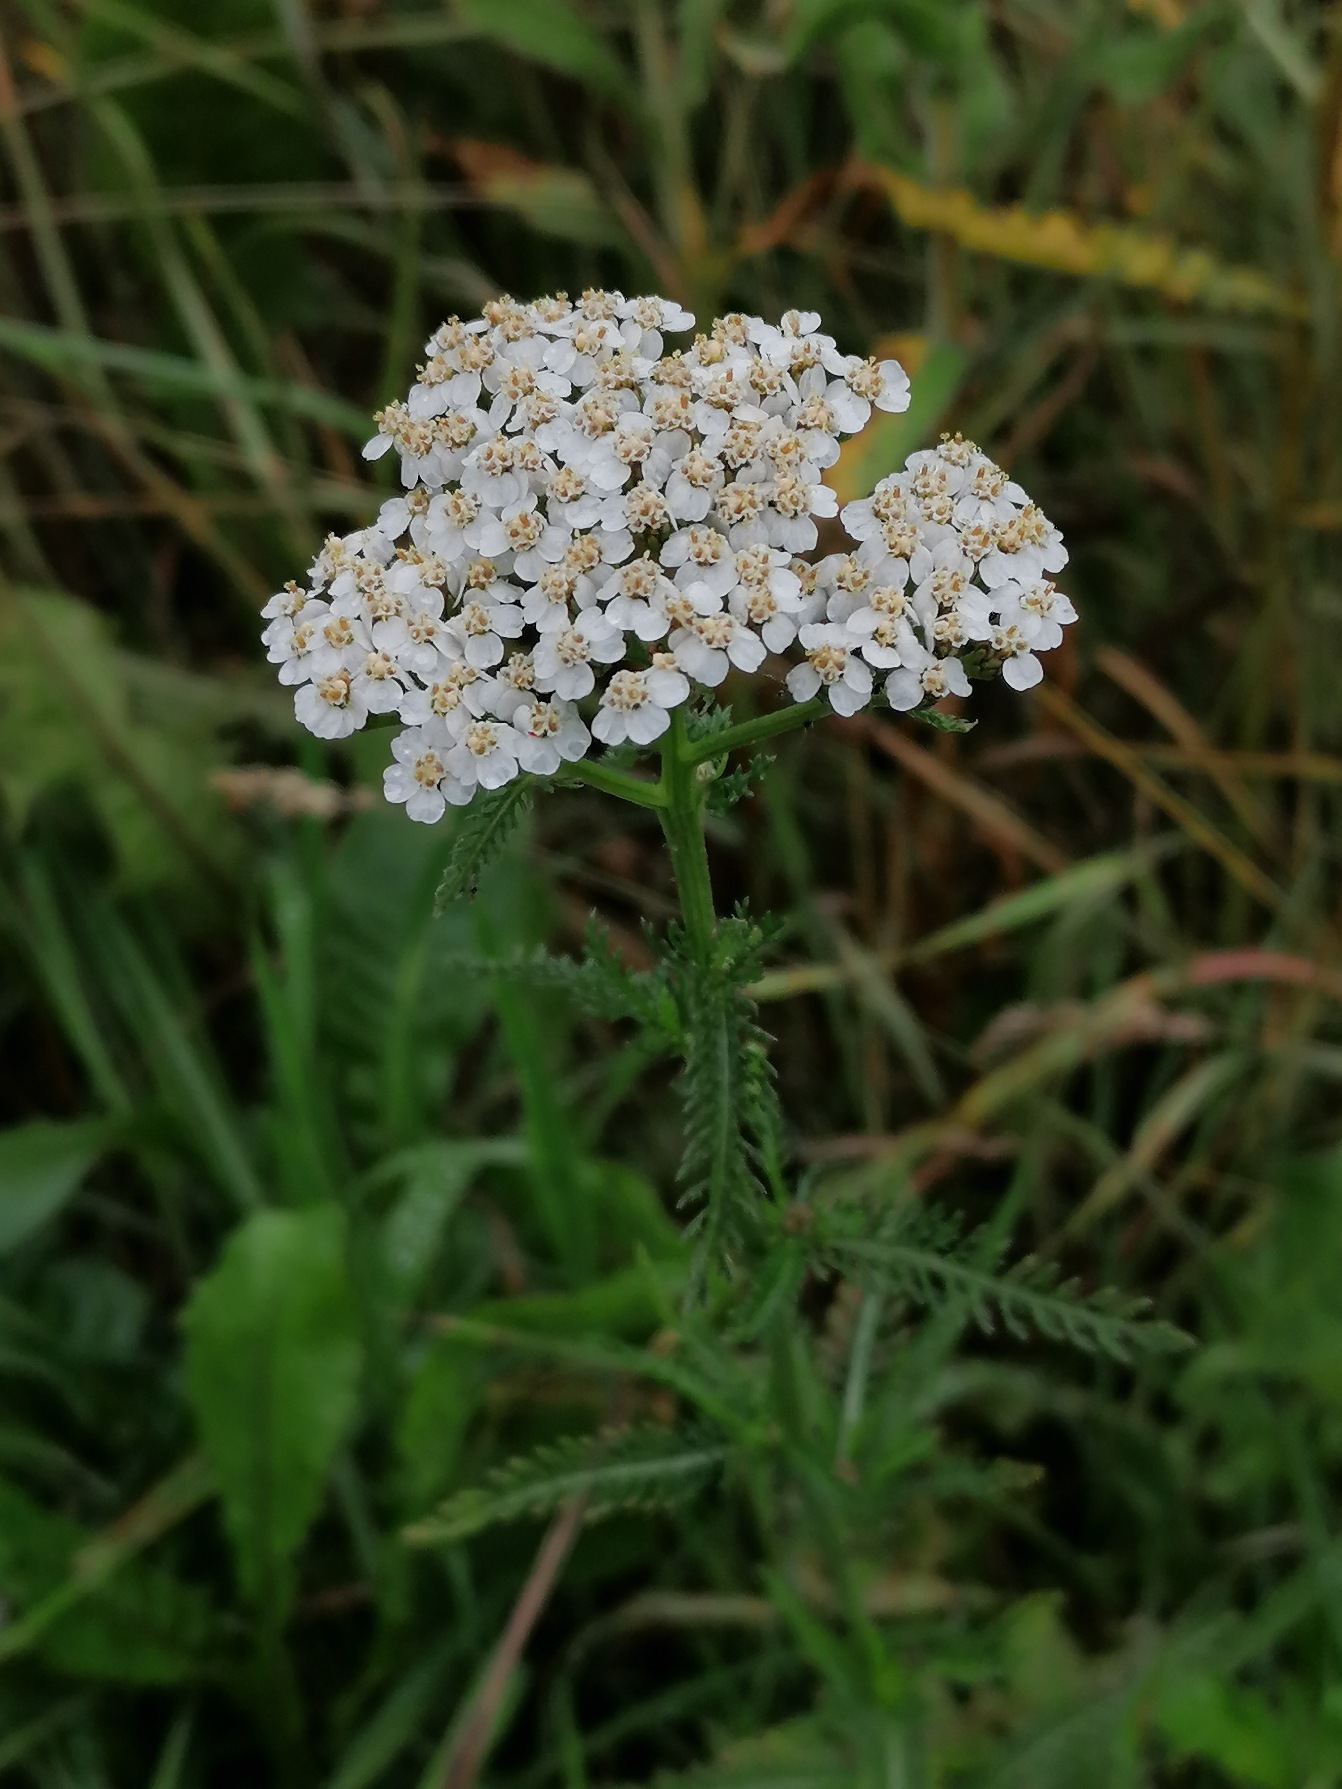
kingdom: Plantae
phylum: Tracheophyta
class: Magnoliopsida
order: Asterales
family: Asteraceae
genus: Achillea
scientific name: Achillea millefolium
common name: Almindelig røllike
